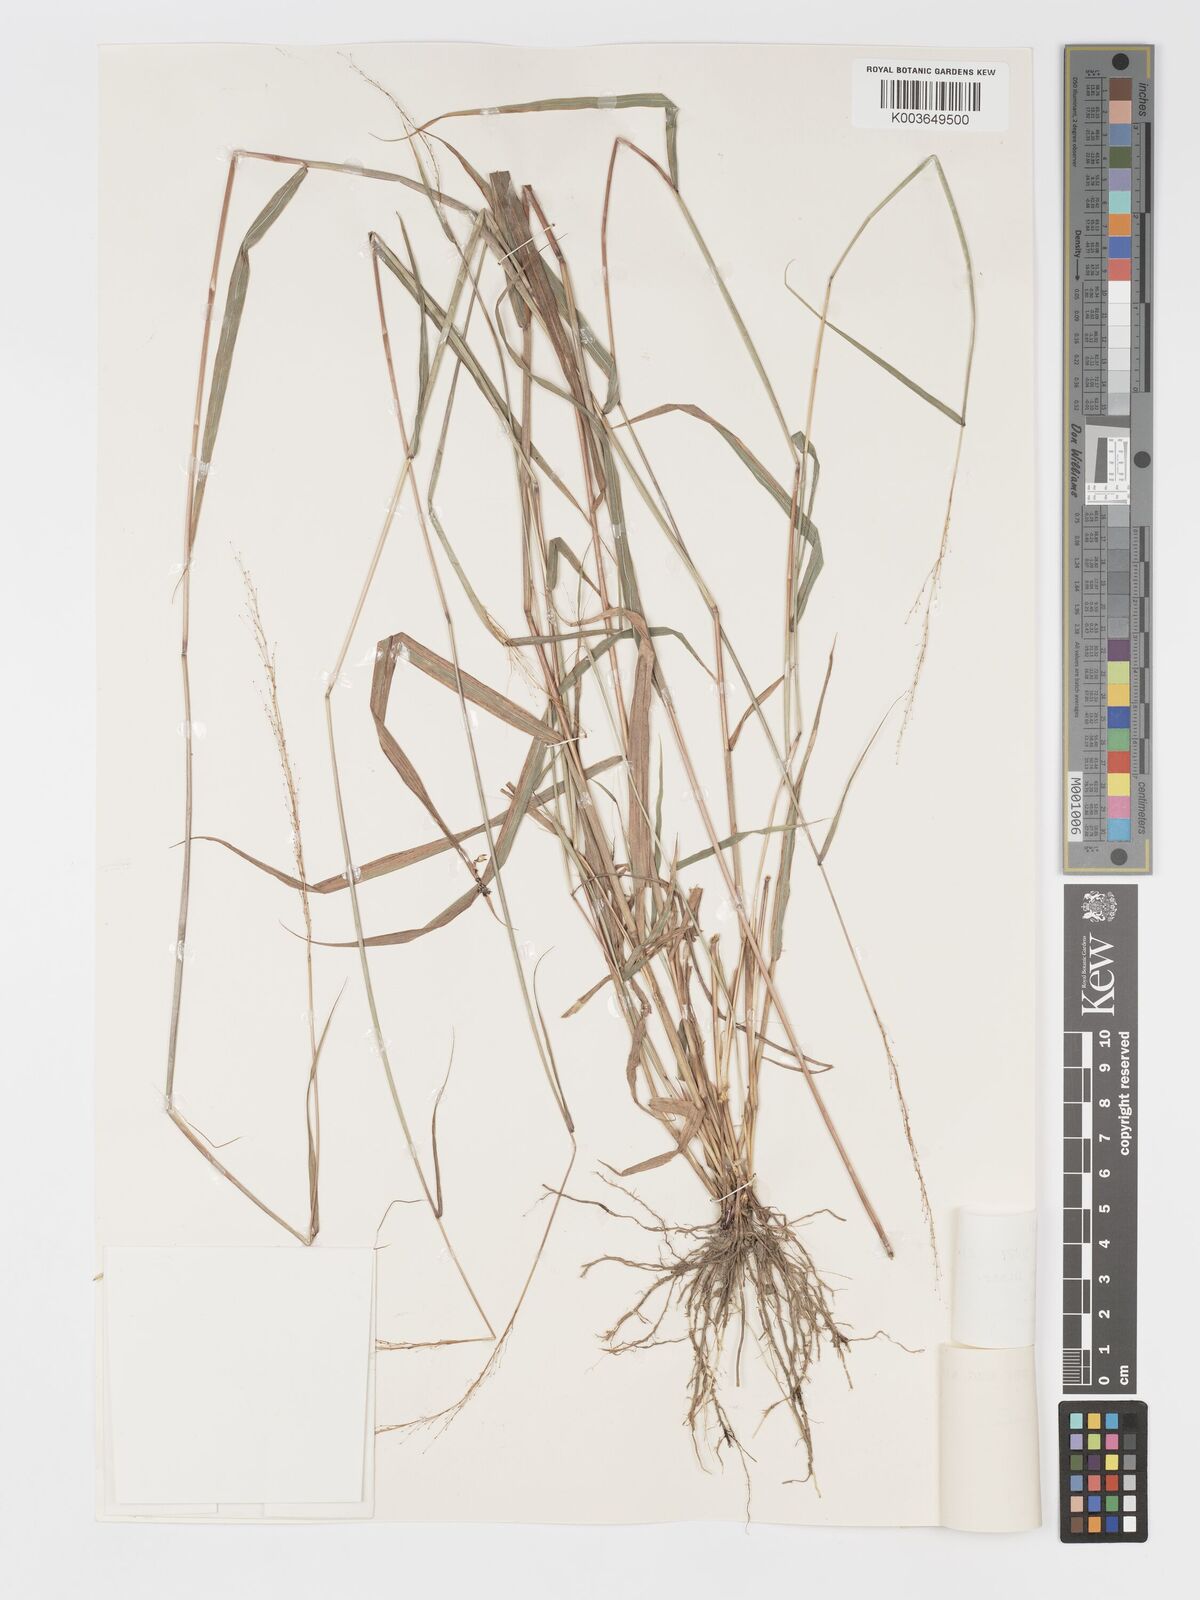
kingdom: Plantae
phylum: Tracheophyta
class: Liliopsida
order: Poales
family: Poaceae
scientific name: Poaceae
